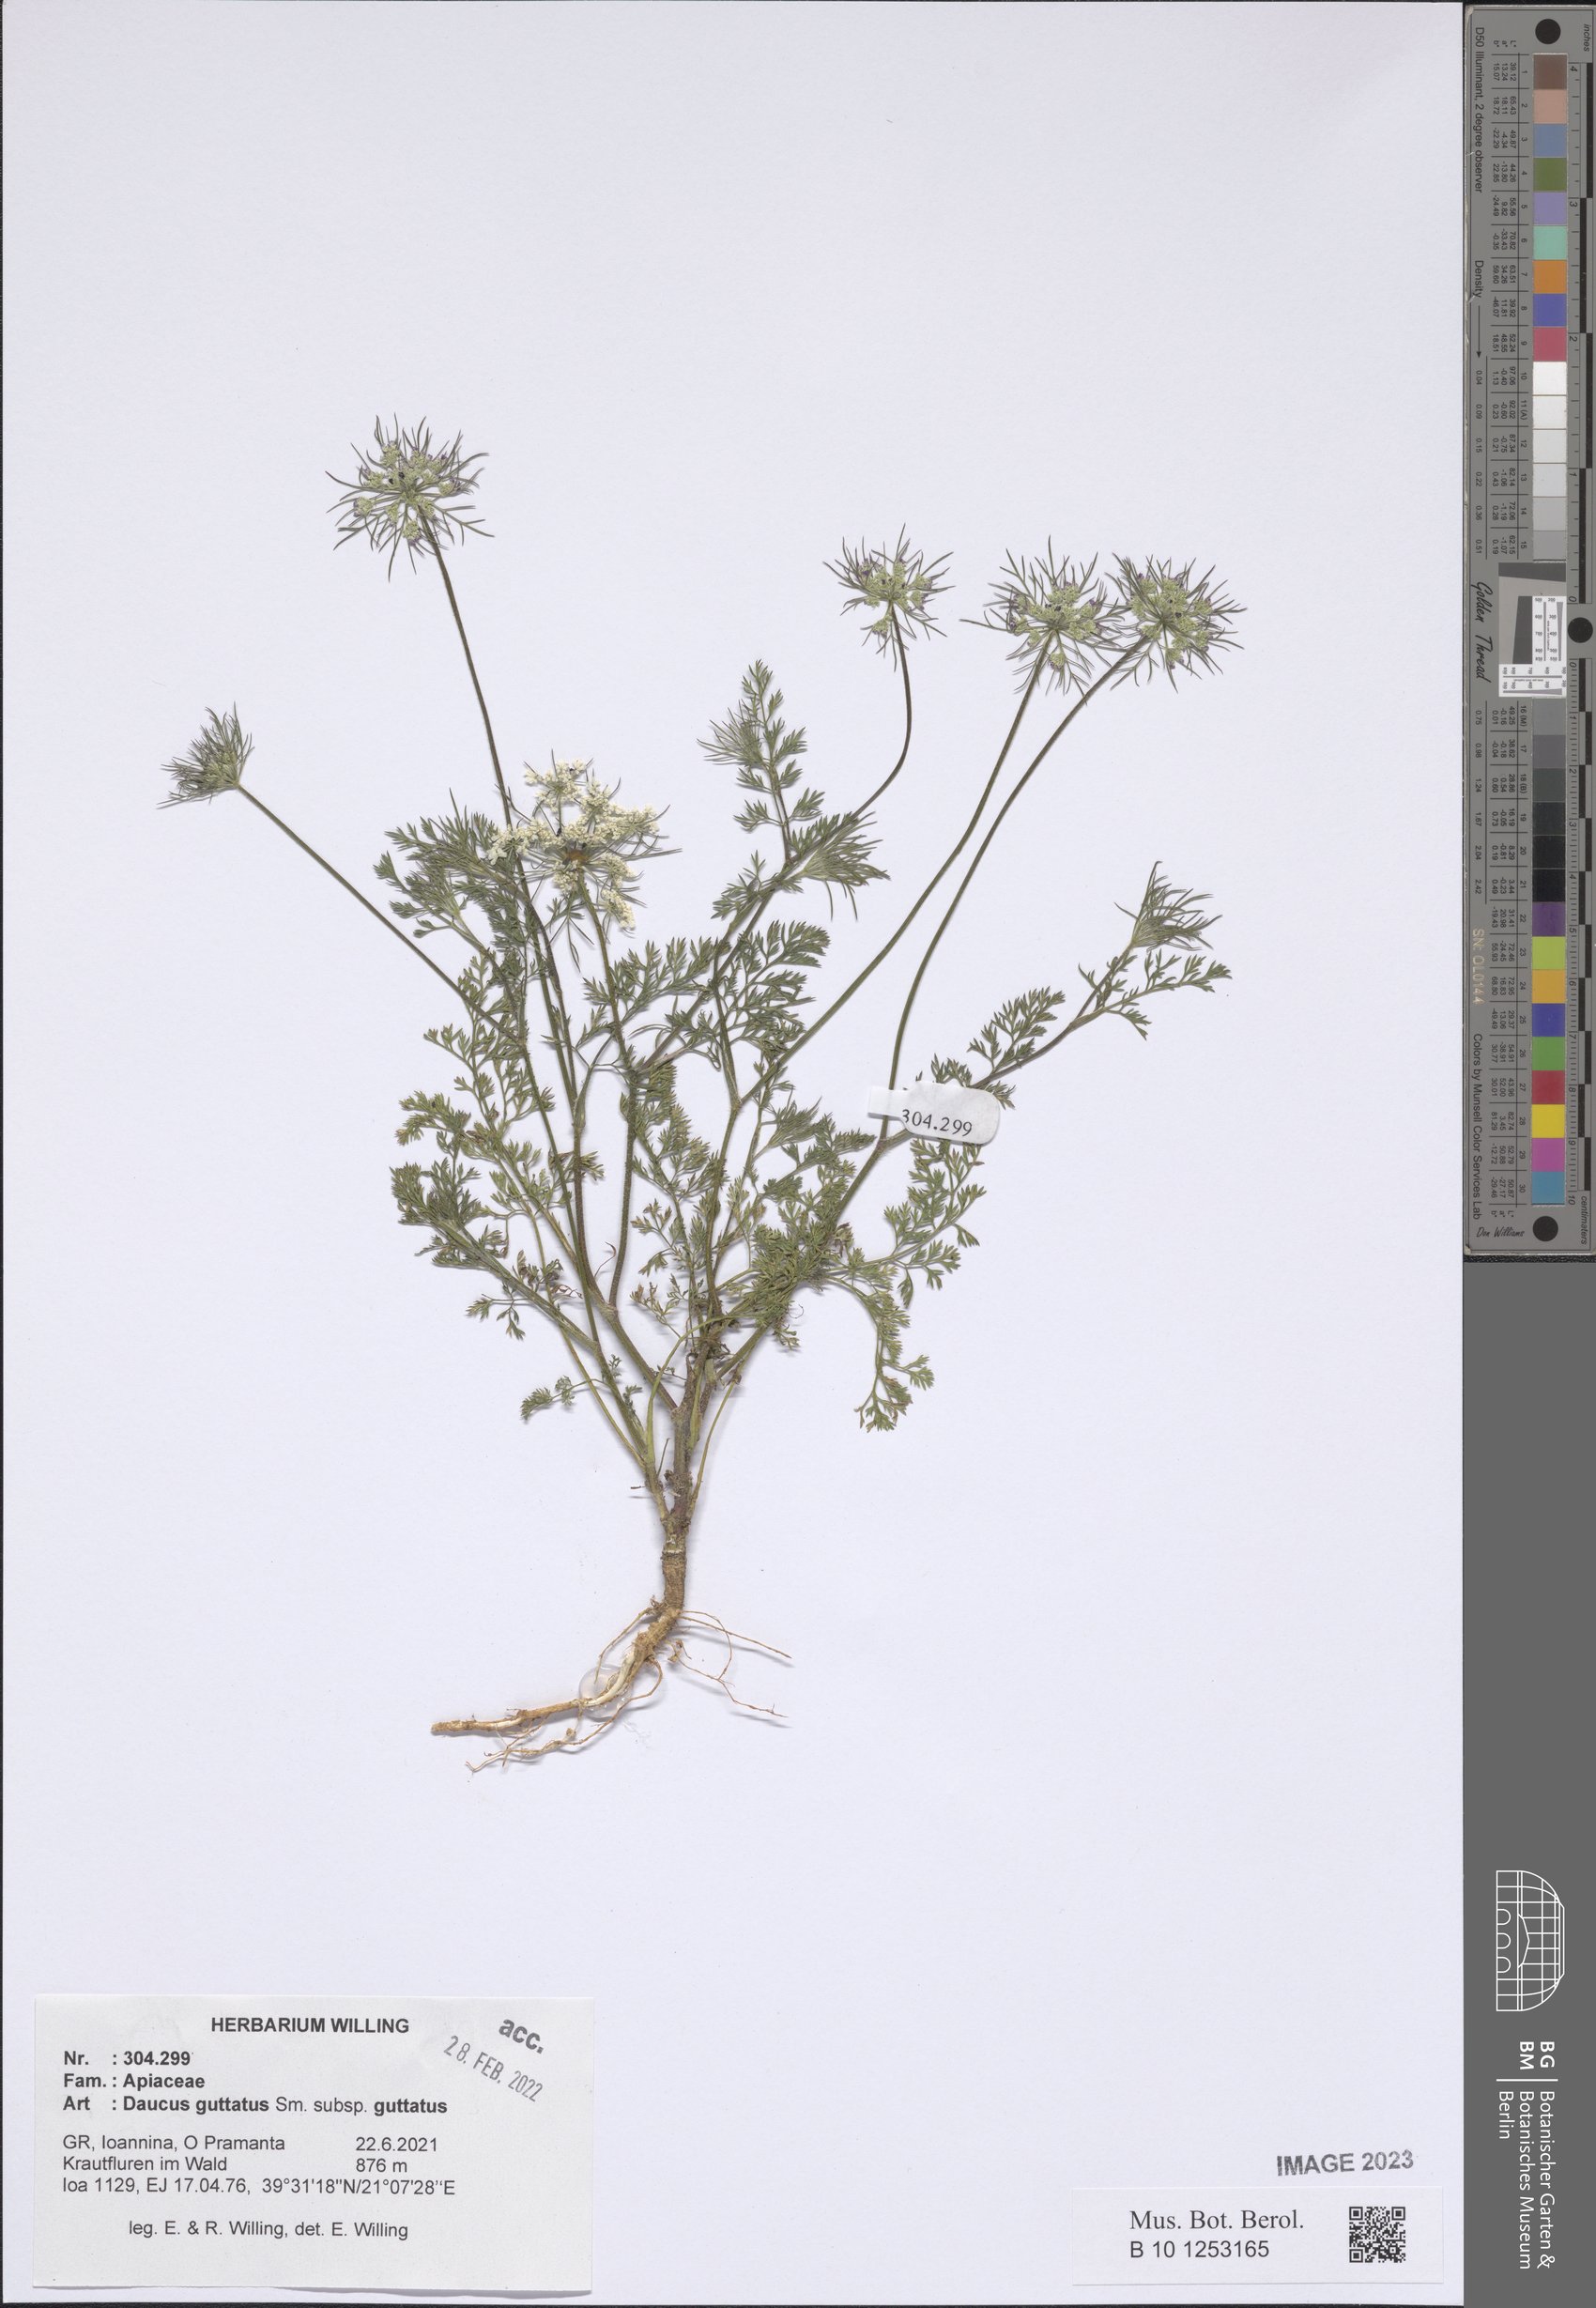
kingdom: Plantae
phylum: Tracheophyta
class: Magnoliopsida
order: Apiales
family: Apiaceae
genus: Daucus
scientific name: Daucus guttatus
